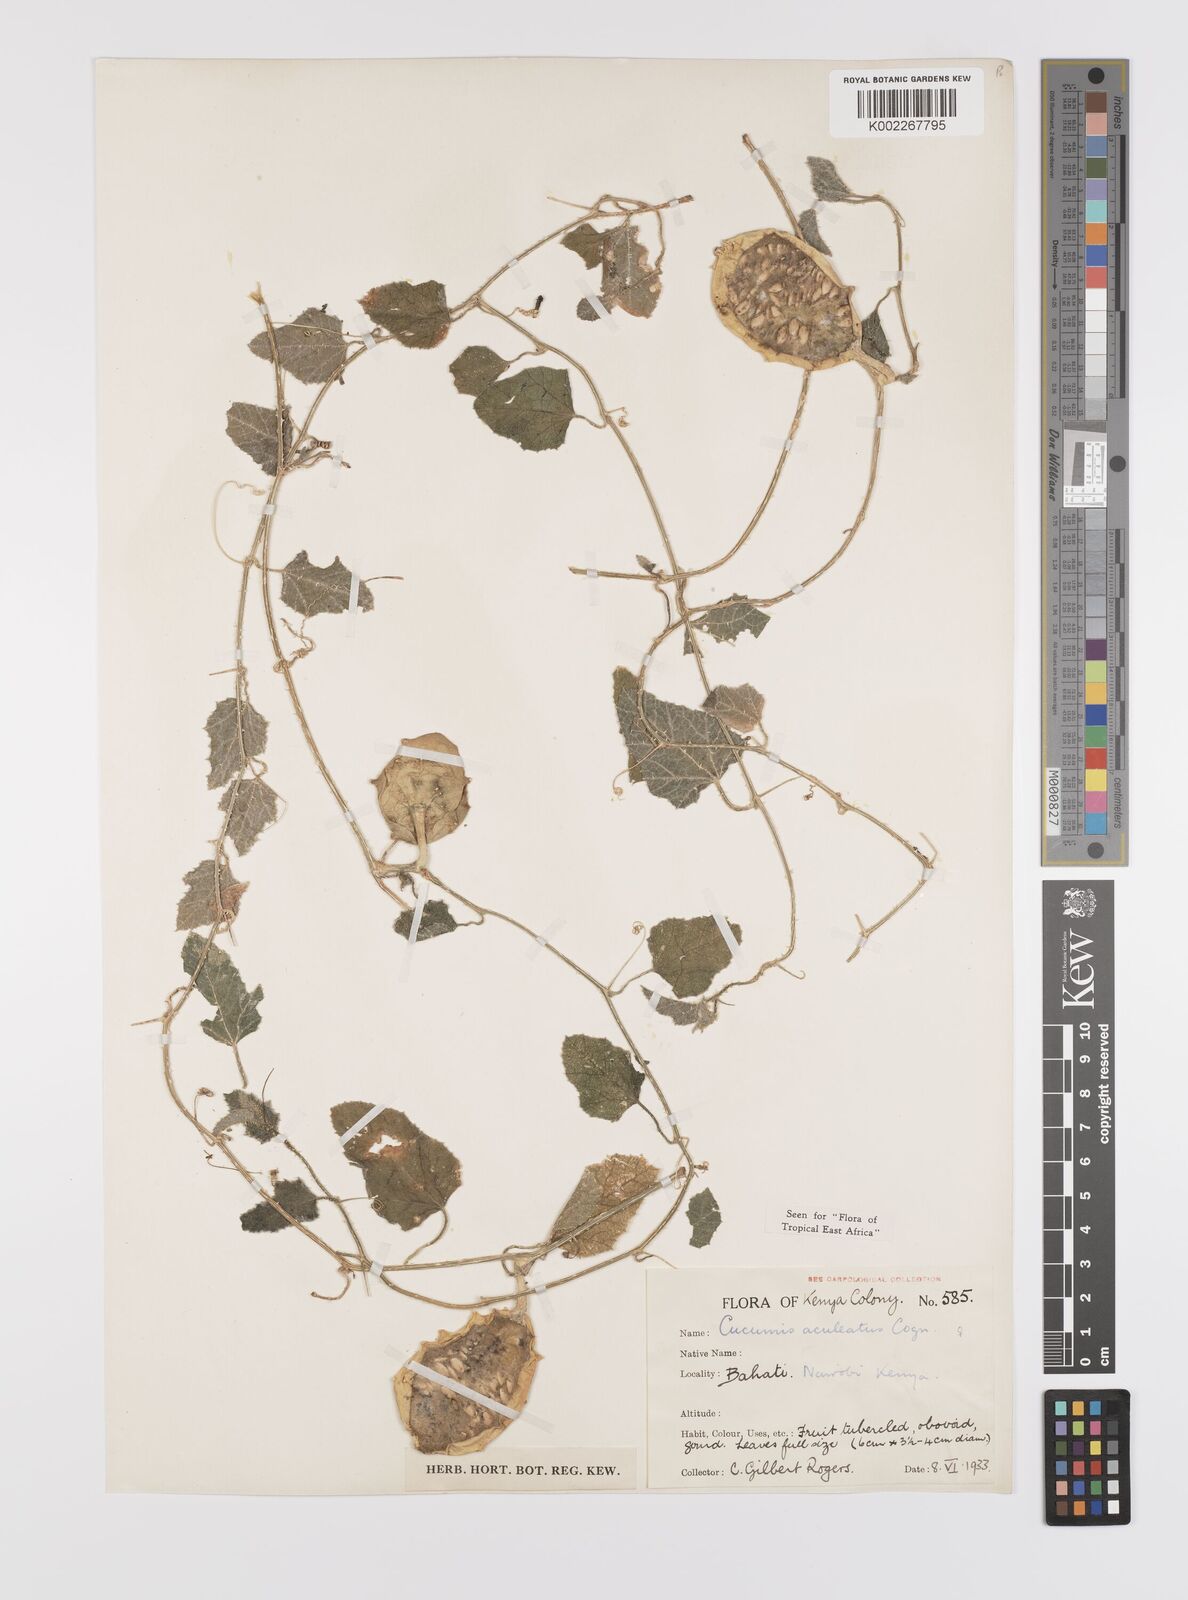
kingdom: Plantae
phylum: Tracheophyta
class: Magnoliopsida
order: Cucurbitales
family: Cucurbitaceae
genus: Cucumis
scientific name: Cucumis aculeatus
